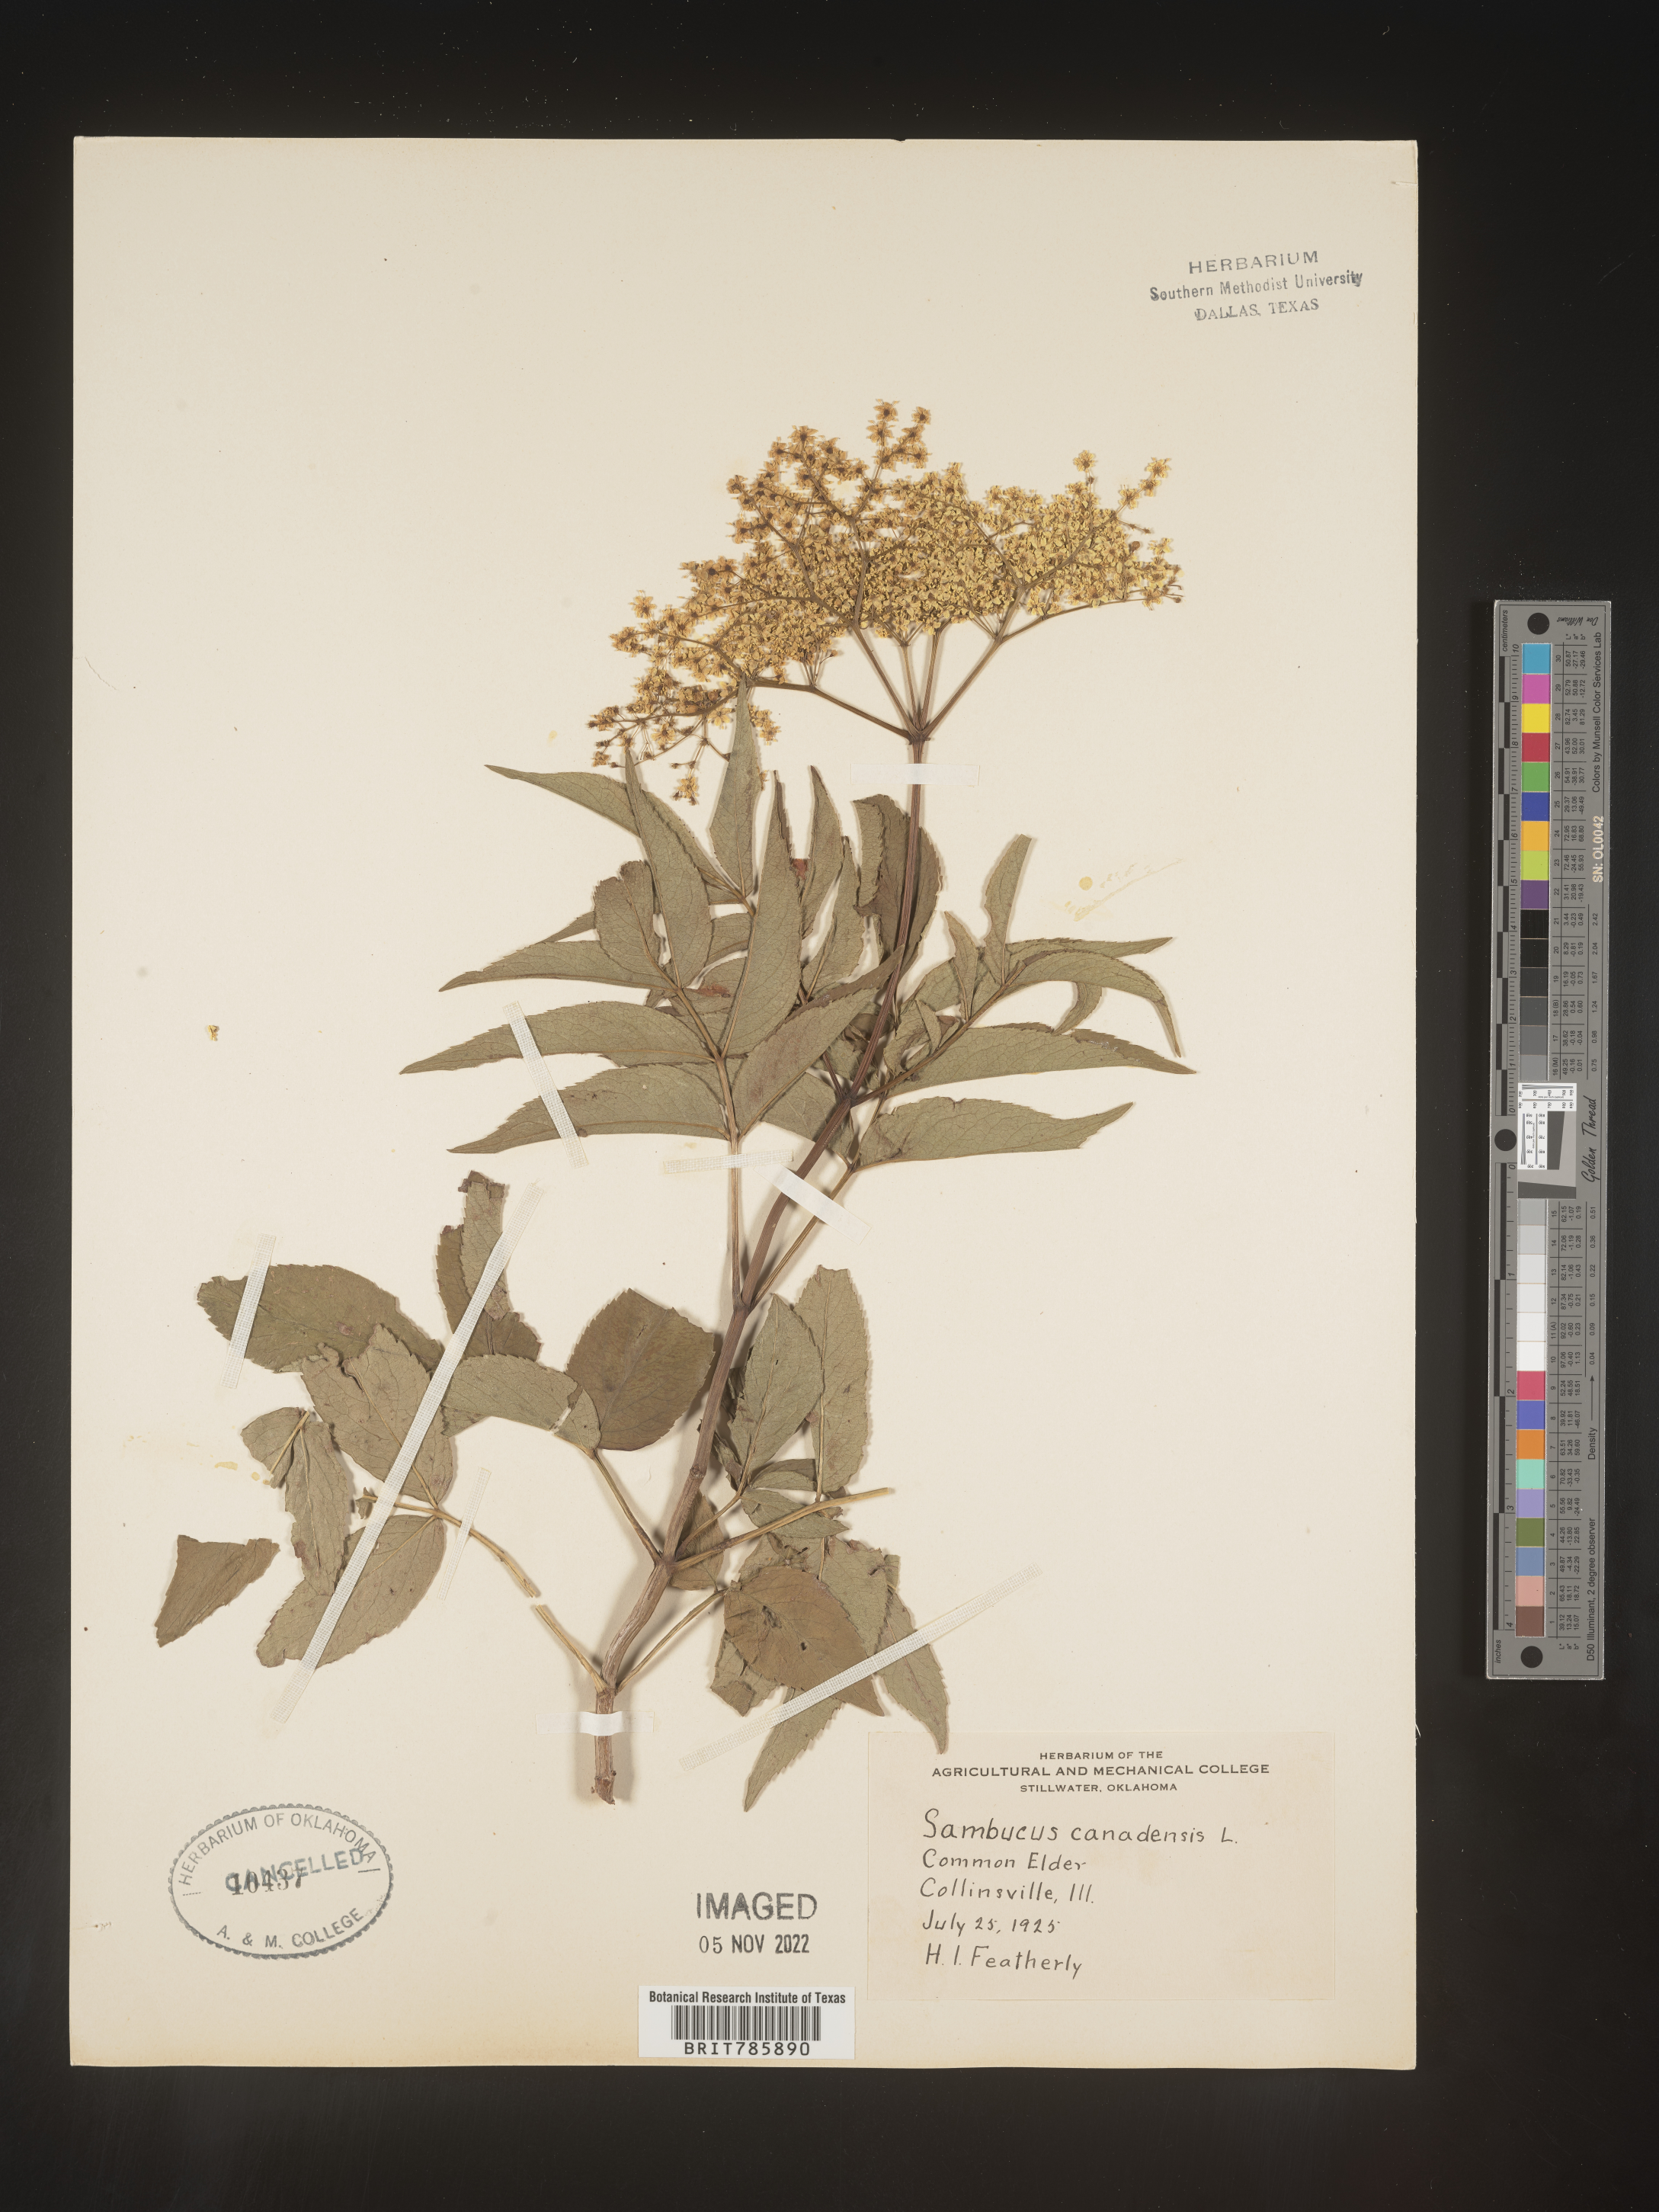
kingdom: Plantae
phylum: Tracheophyta
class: Magnoliopsida
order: Dipsacales
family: Viburnaceae
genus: Sambucus
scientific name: Sambucus nigra
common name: Elder
